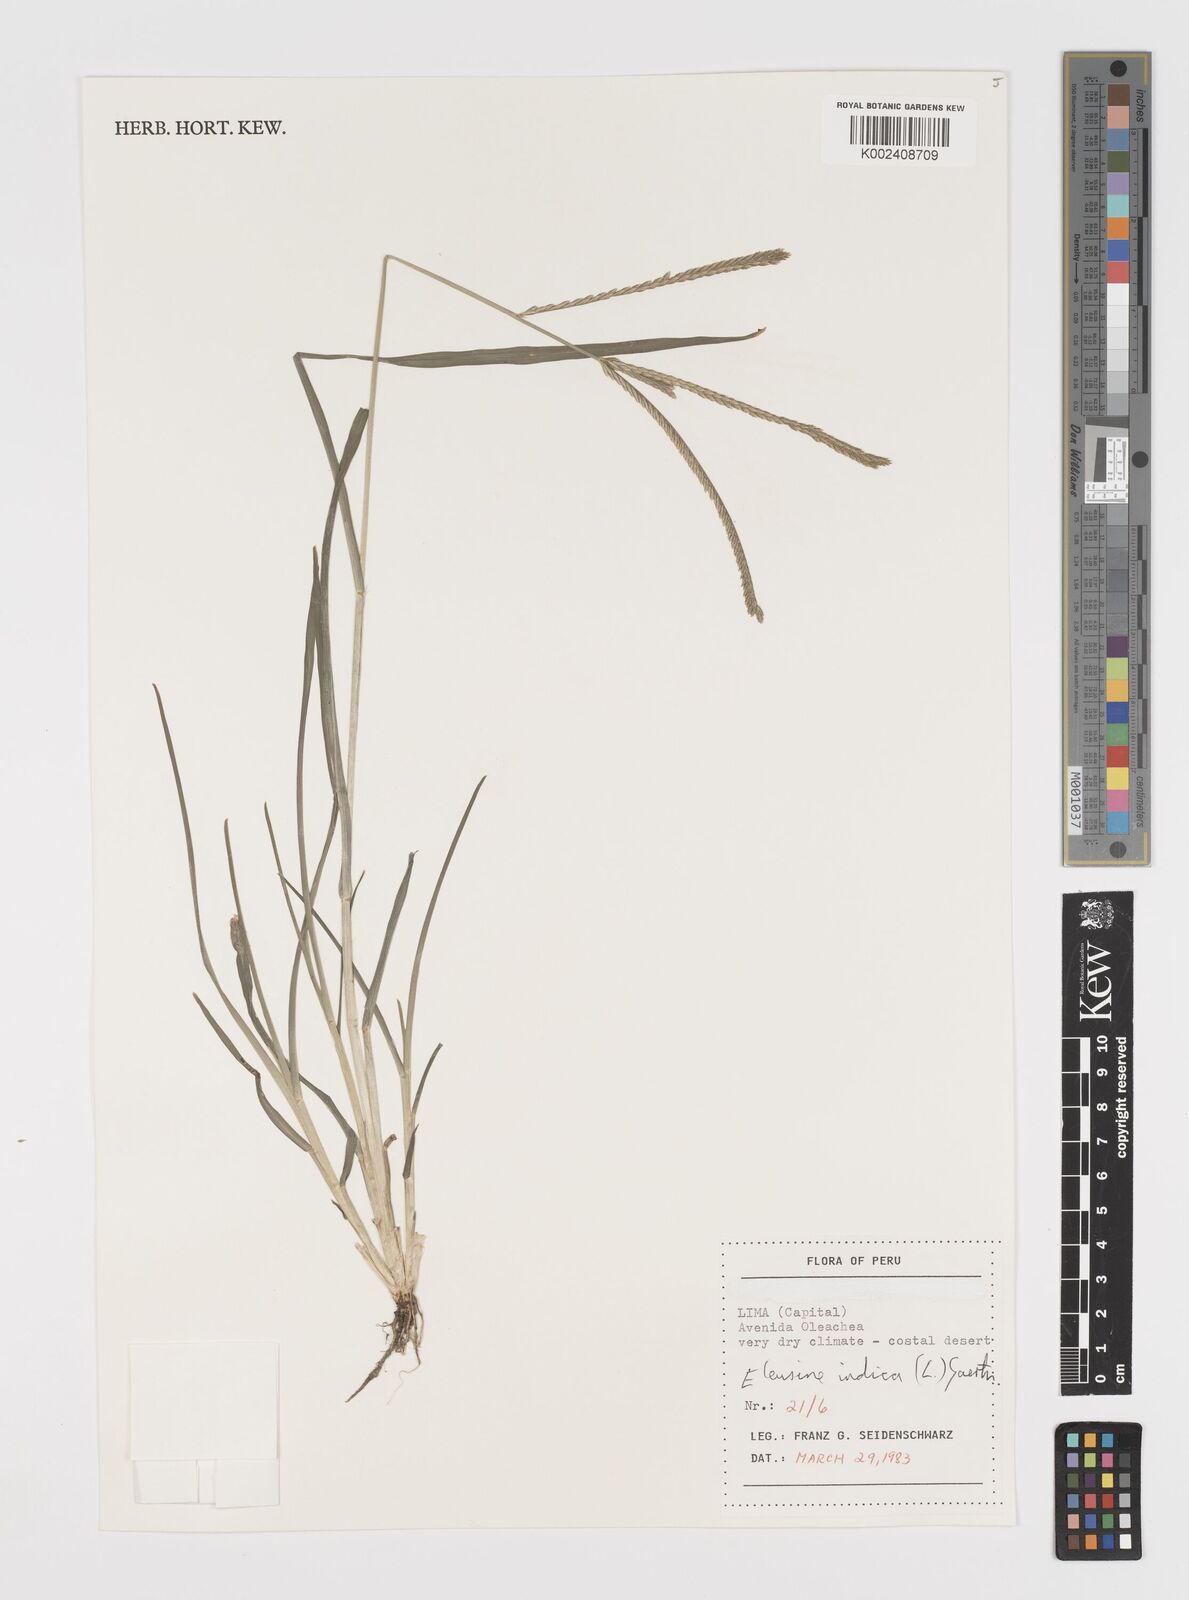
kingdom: Plantae
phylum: Tracheophyta
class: Liliopsida
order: Poales
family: Poaceae
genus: Eleusine
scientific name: Eleusine indica
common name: Yard-grass
